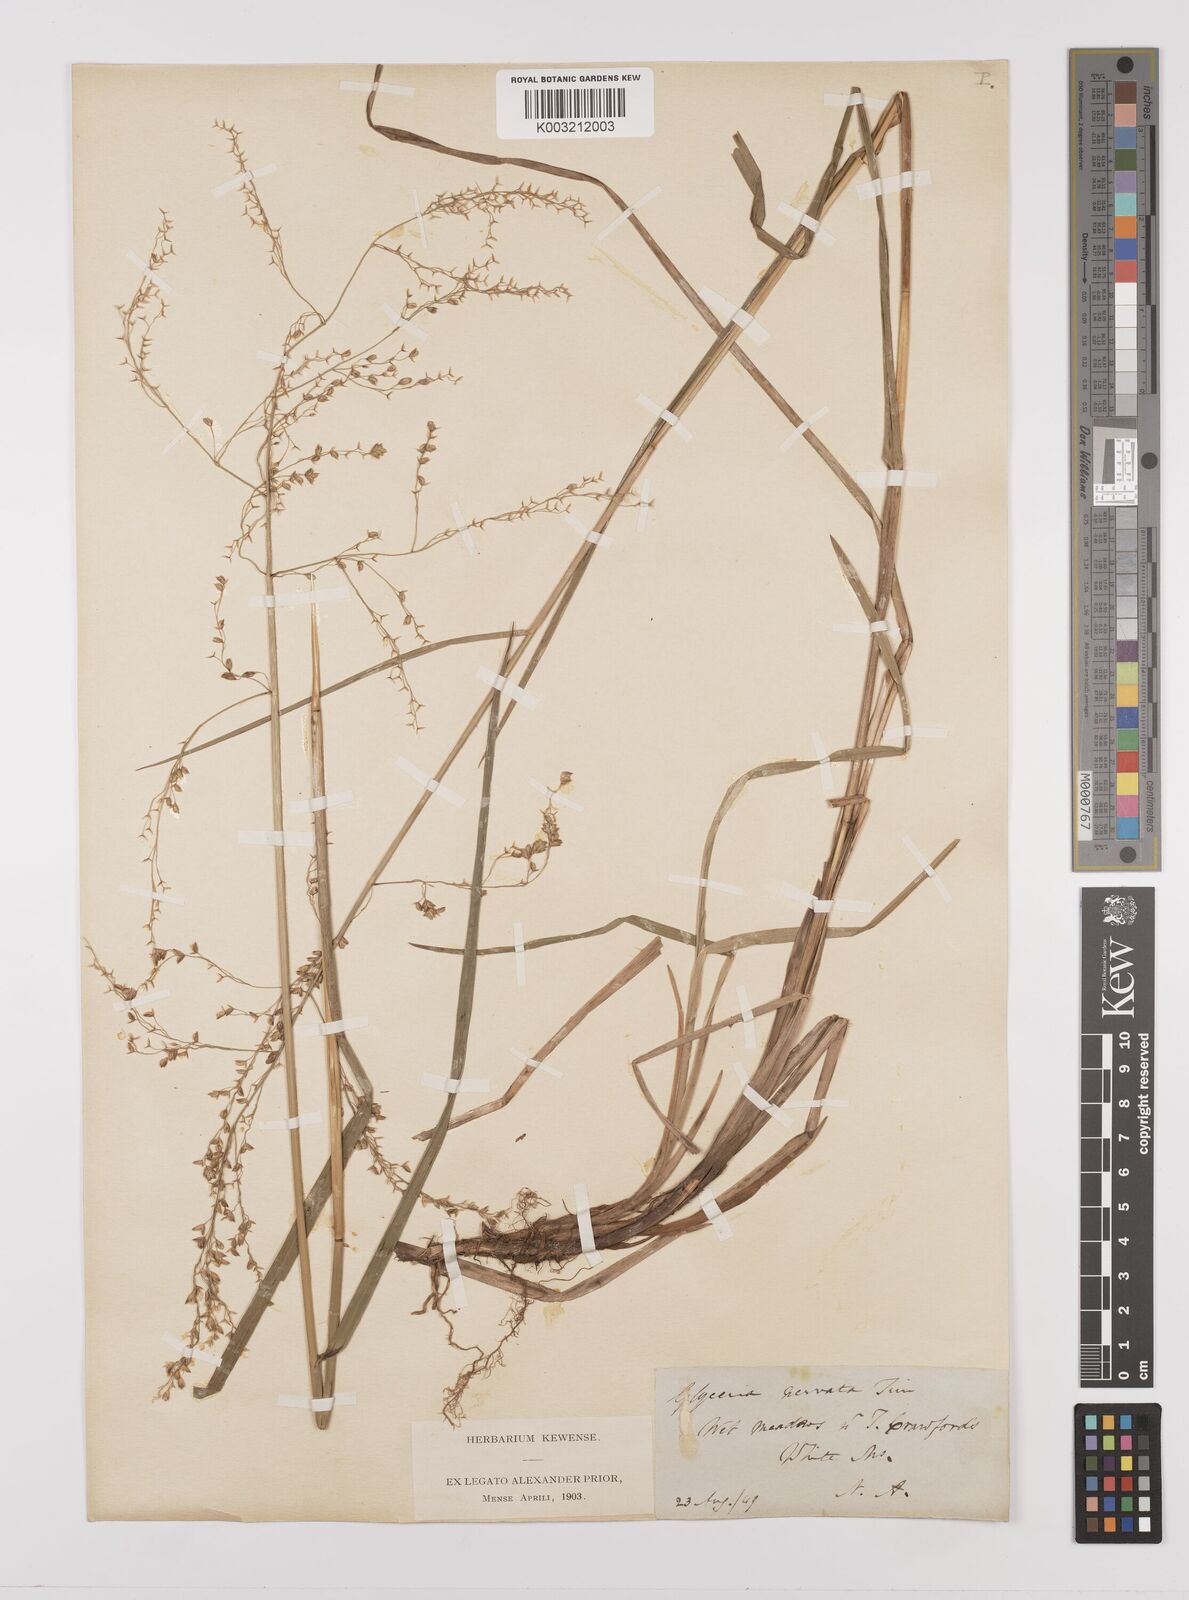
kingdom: Plantae
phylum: Tracheophyta
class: Liliopsida
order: Poales
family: Poaceae
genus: Glyceria
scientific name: Glyceria canadensis
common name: Canada mannagrass
